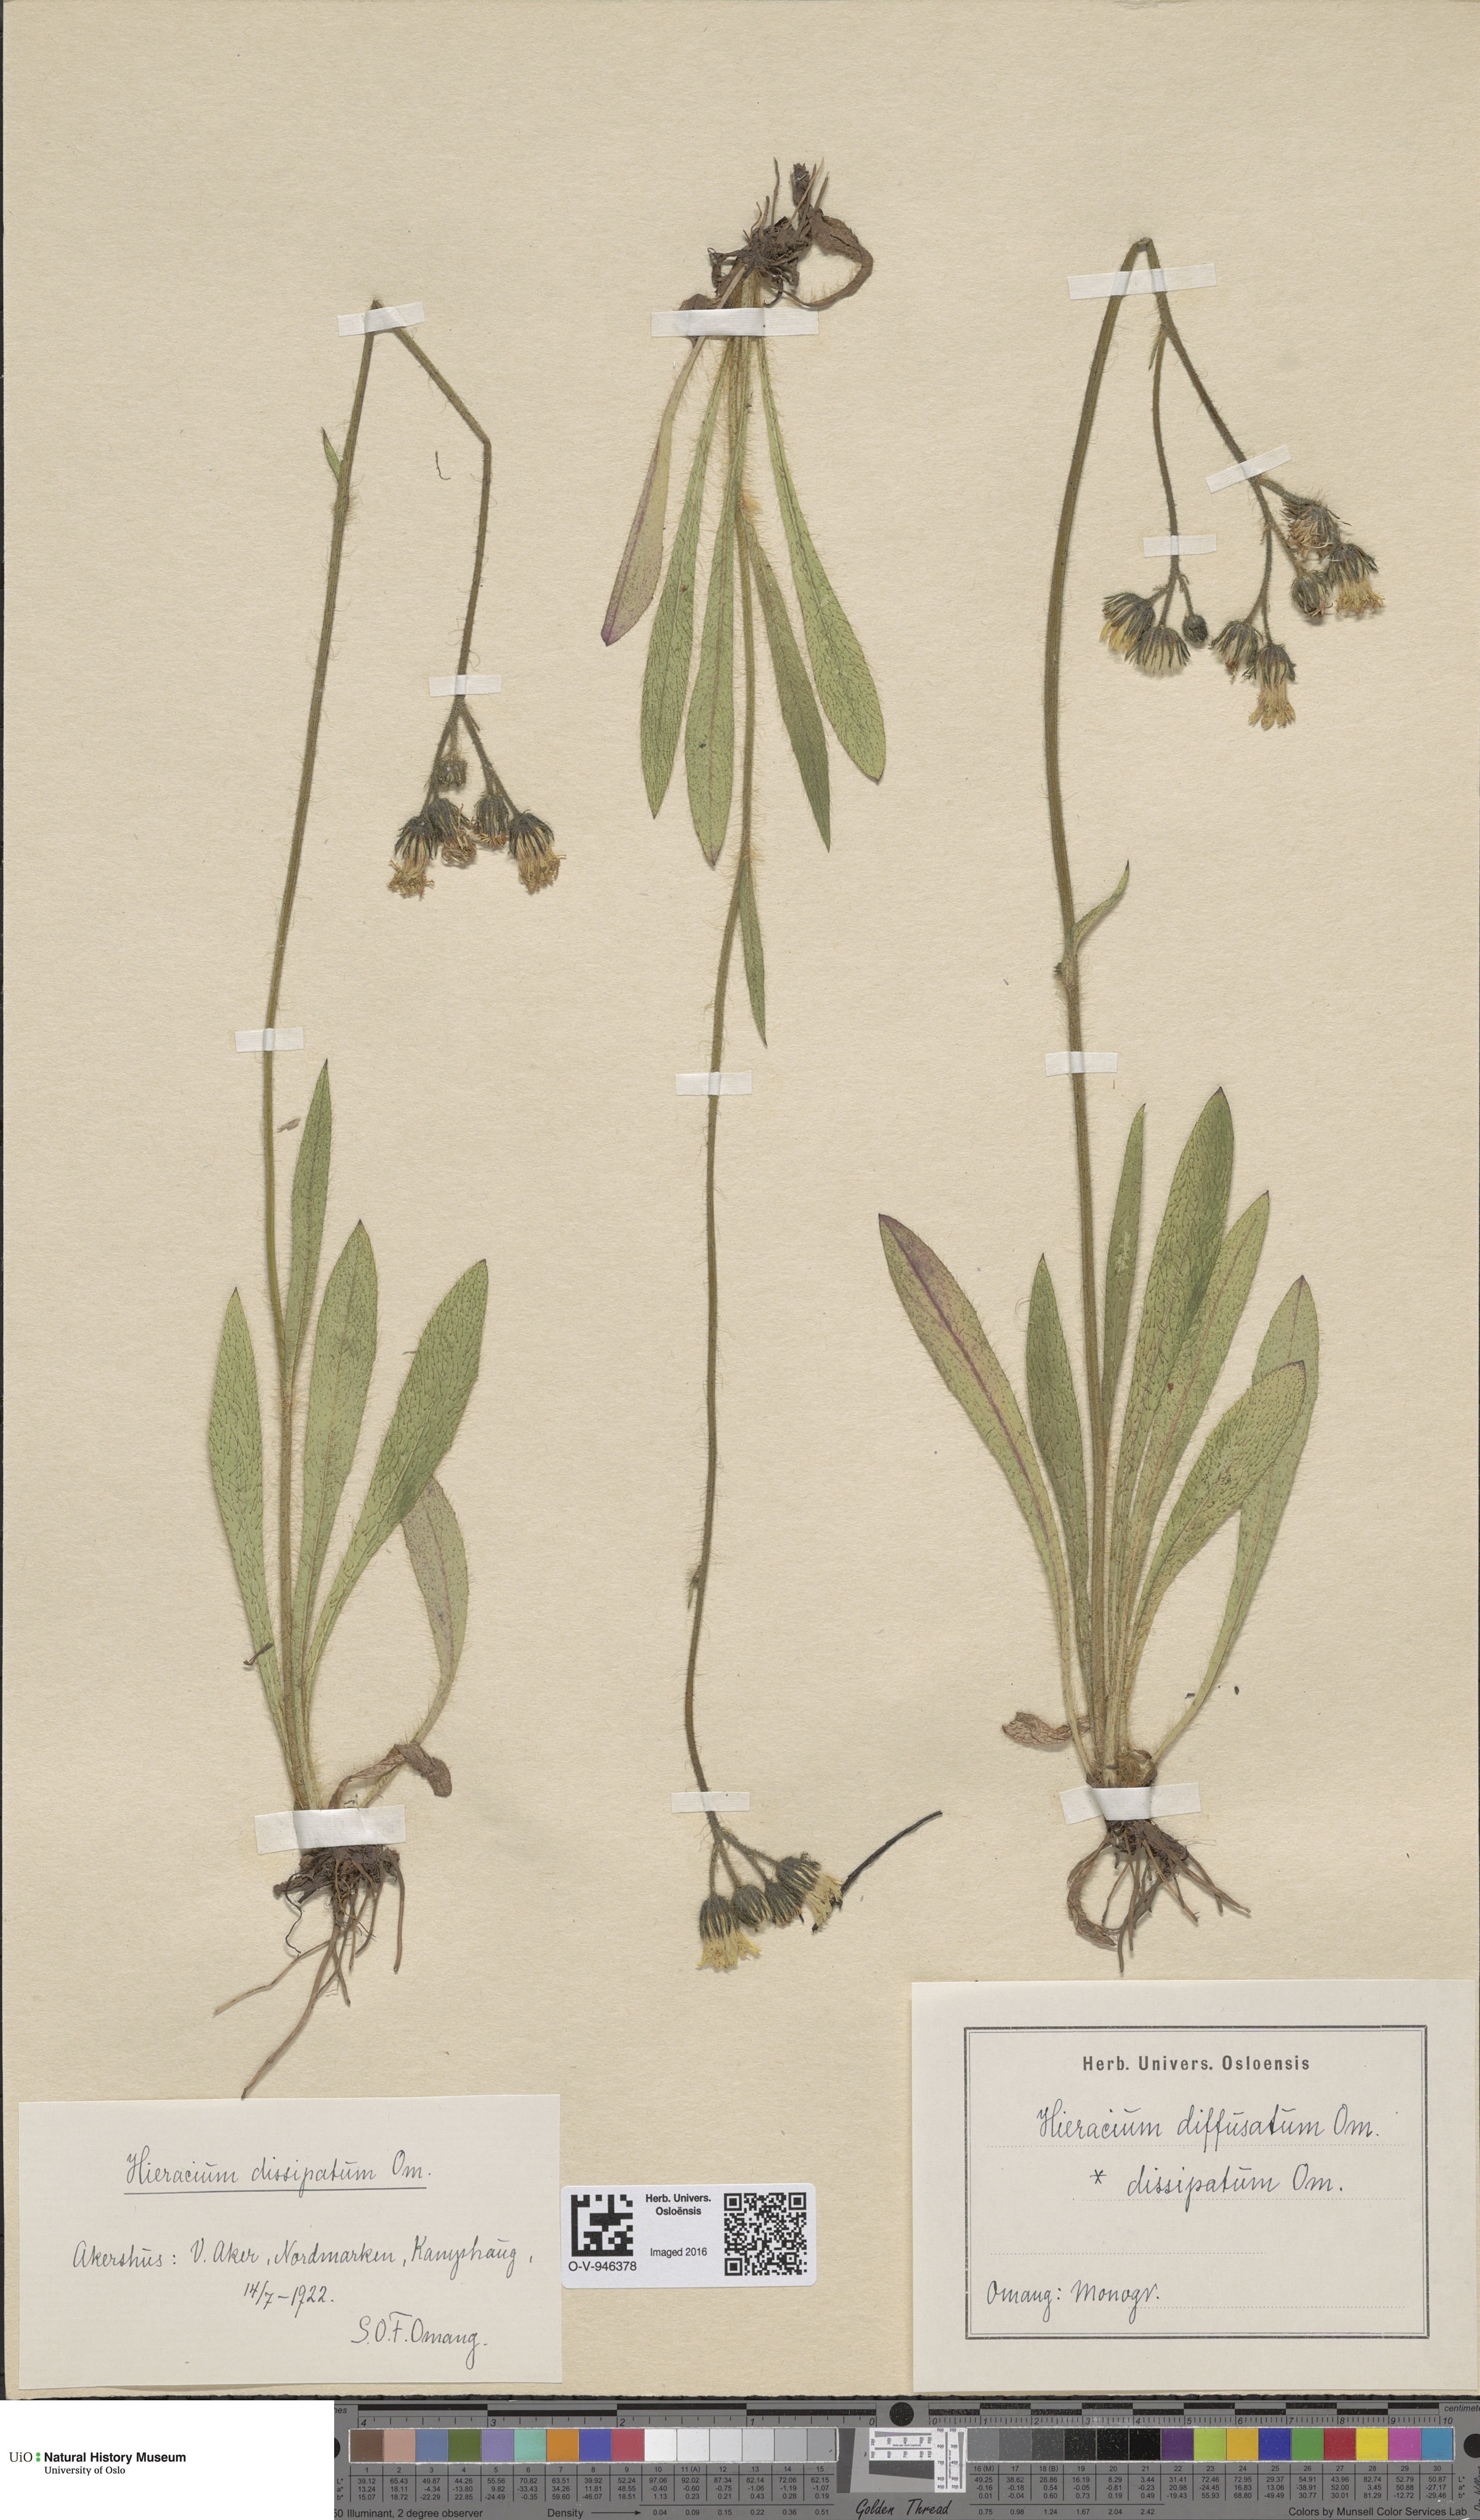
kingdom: Plantae
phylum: Tracheophyta
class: Magnoliopsida
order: Asterales
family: Asteraceae
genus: Pilosella
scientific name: Pilosella dubia
